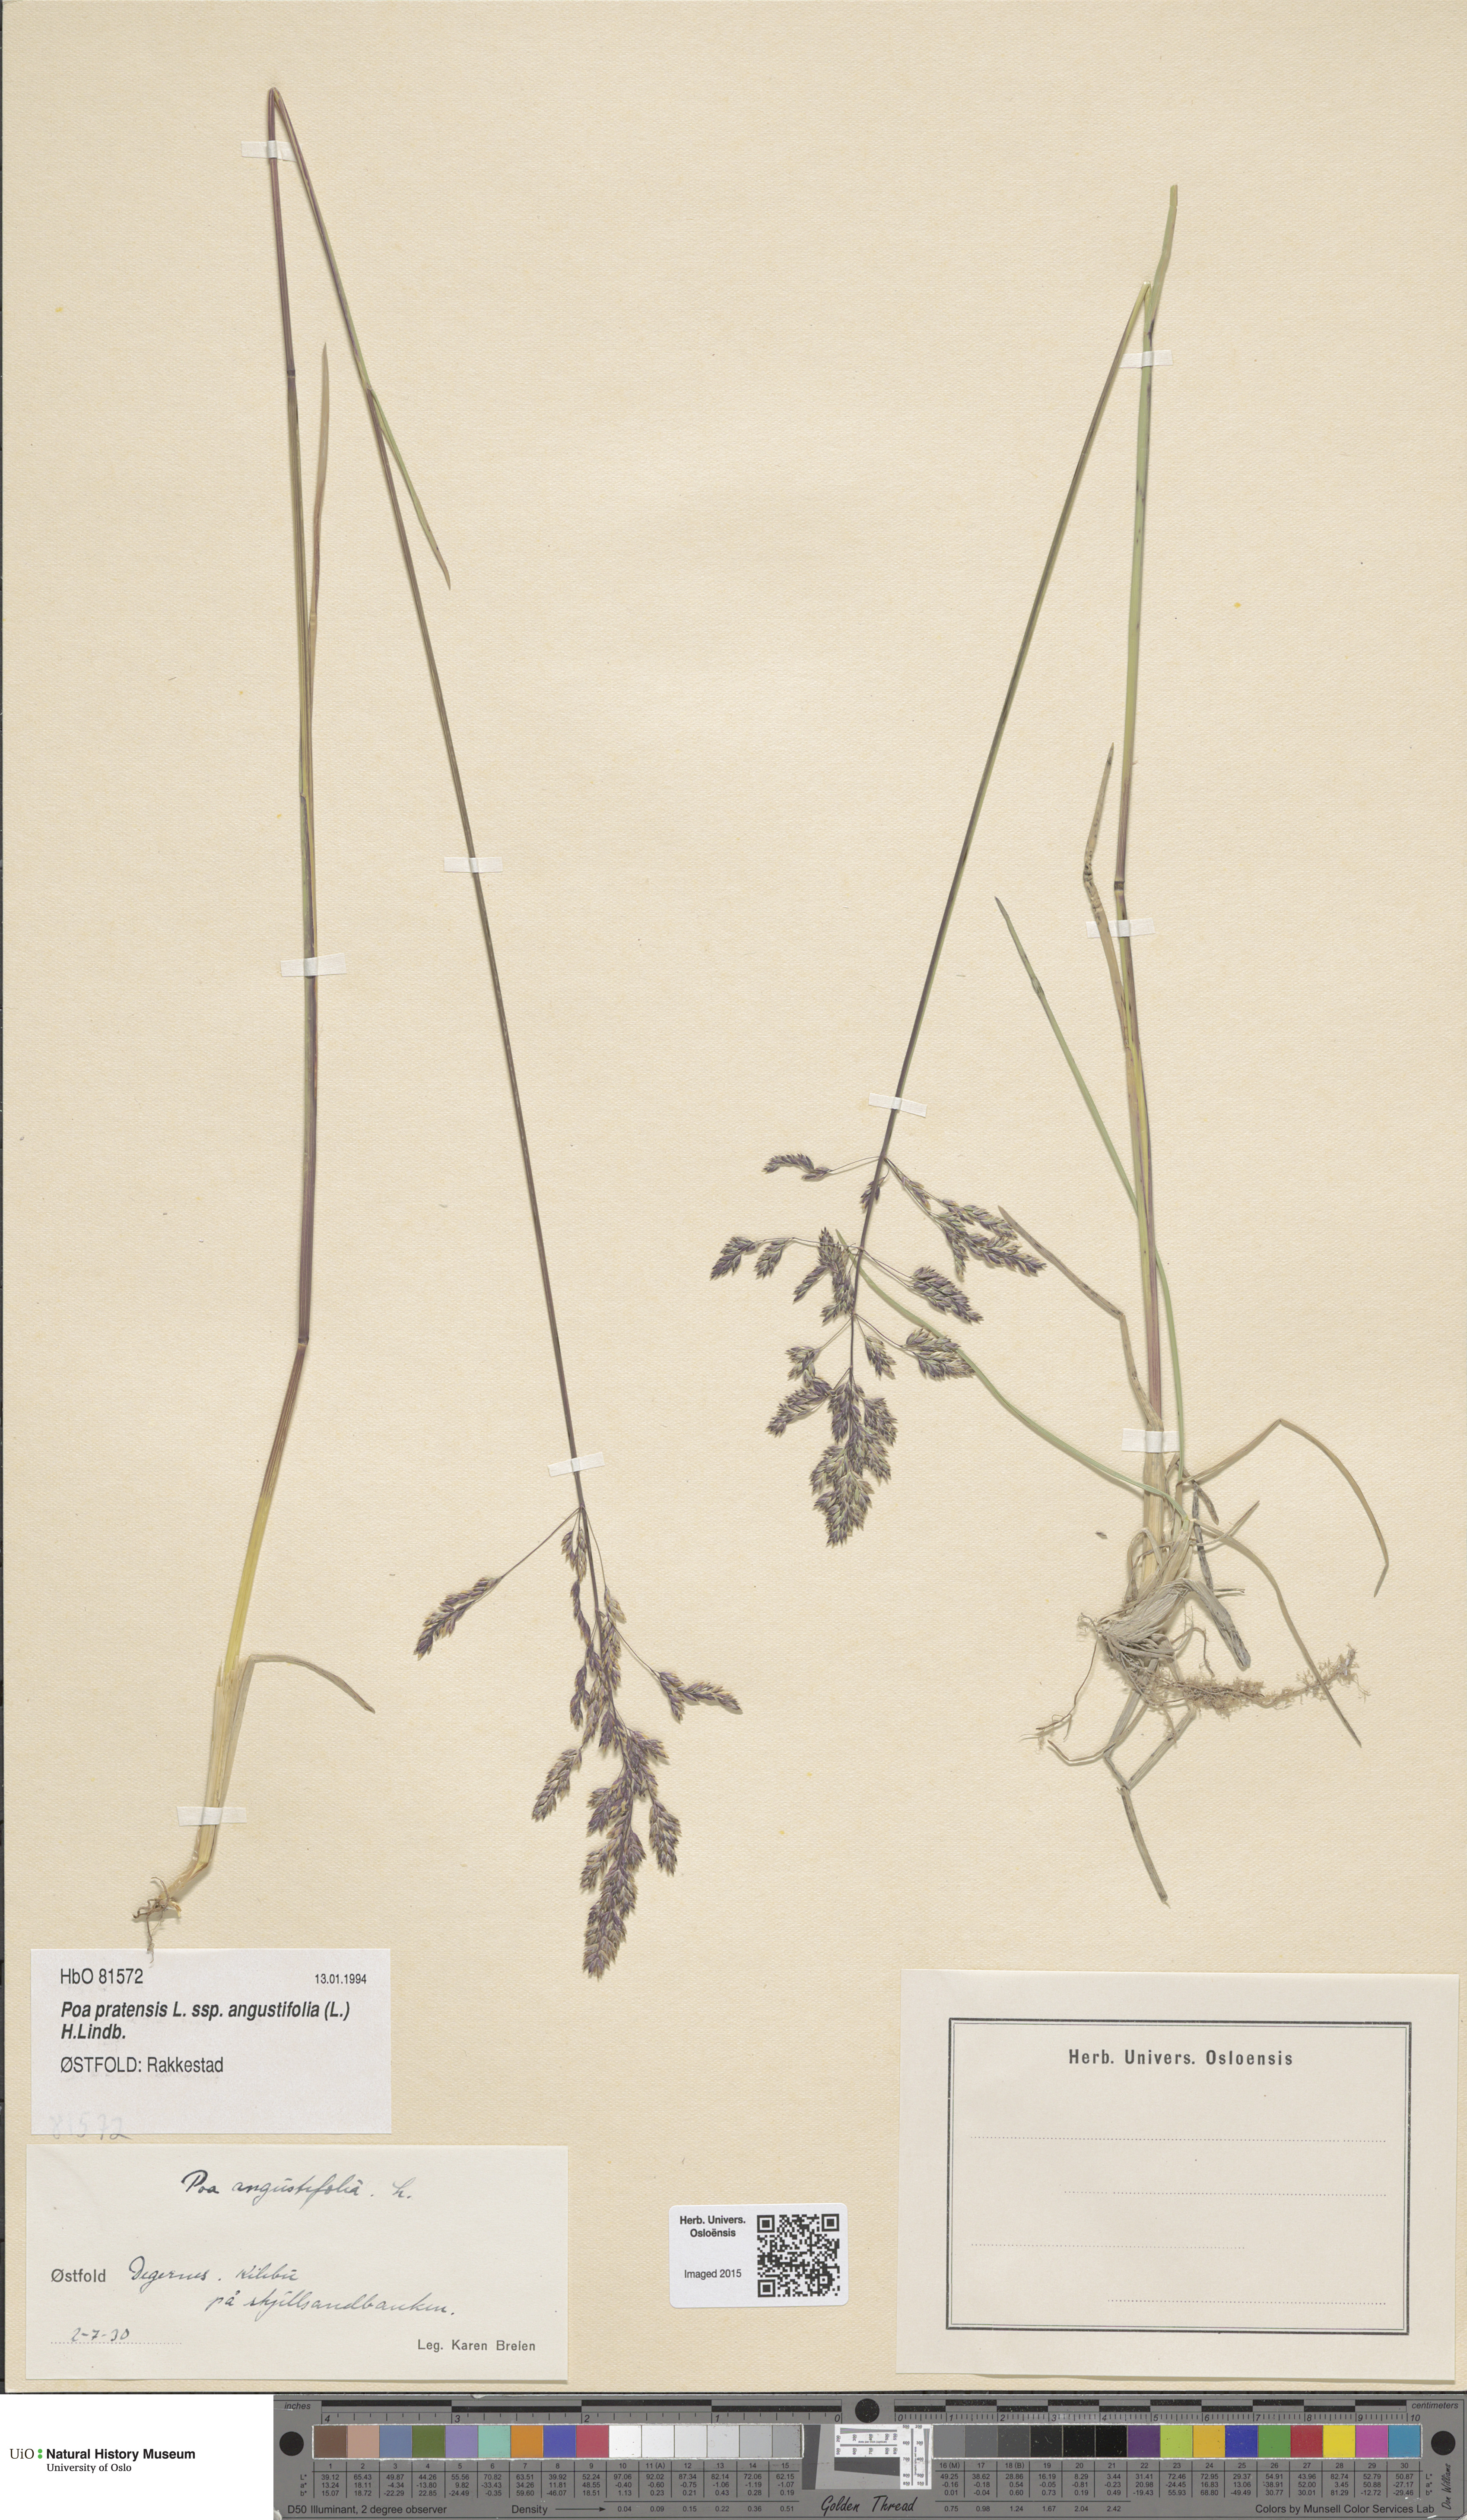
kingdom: Plantae
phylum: Tracheophyta
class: Liliopsida
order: Poales
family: Poaceae
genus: Poa
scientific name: Poa angustifolia
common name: Narrow-leaved meadow-grass
